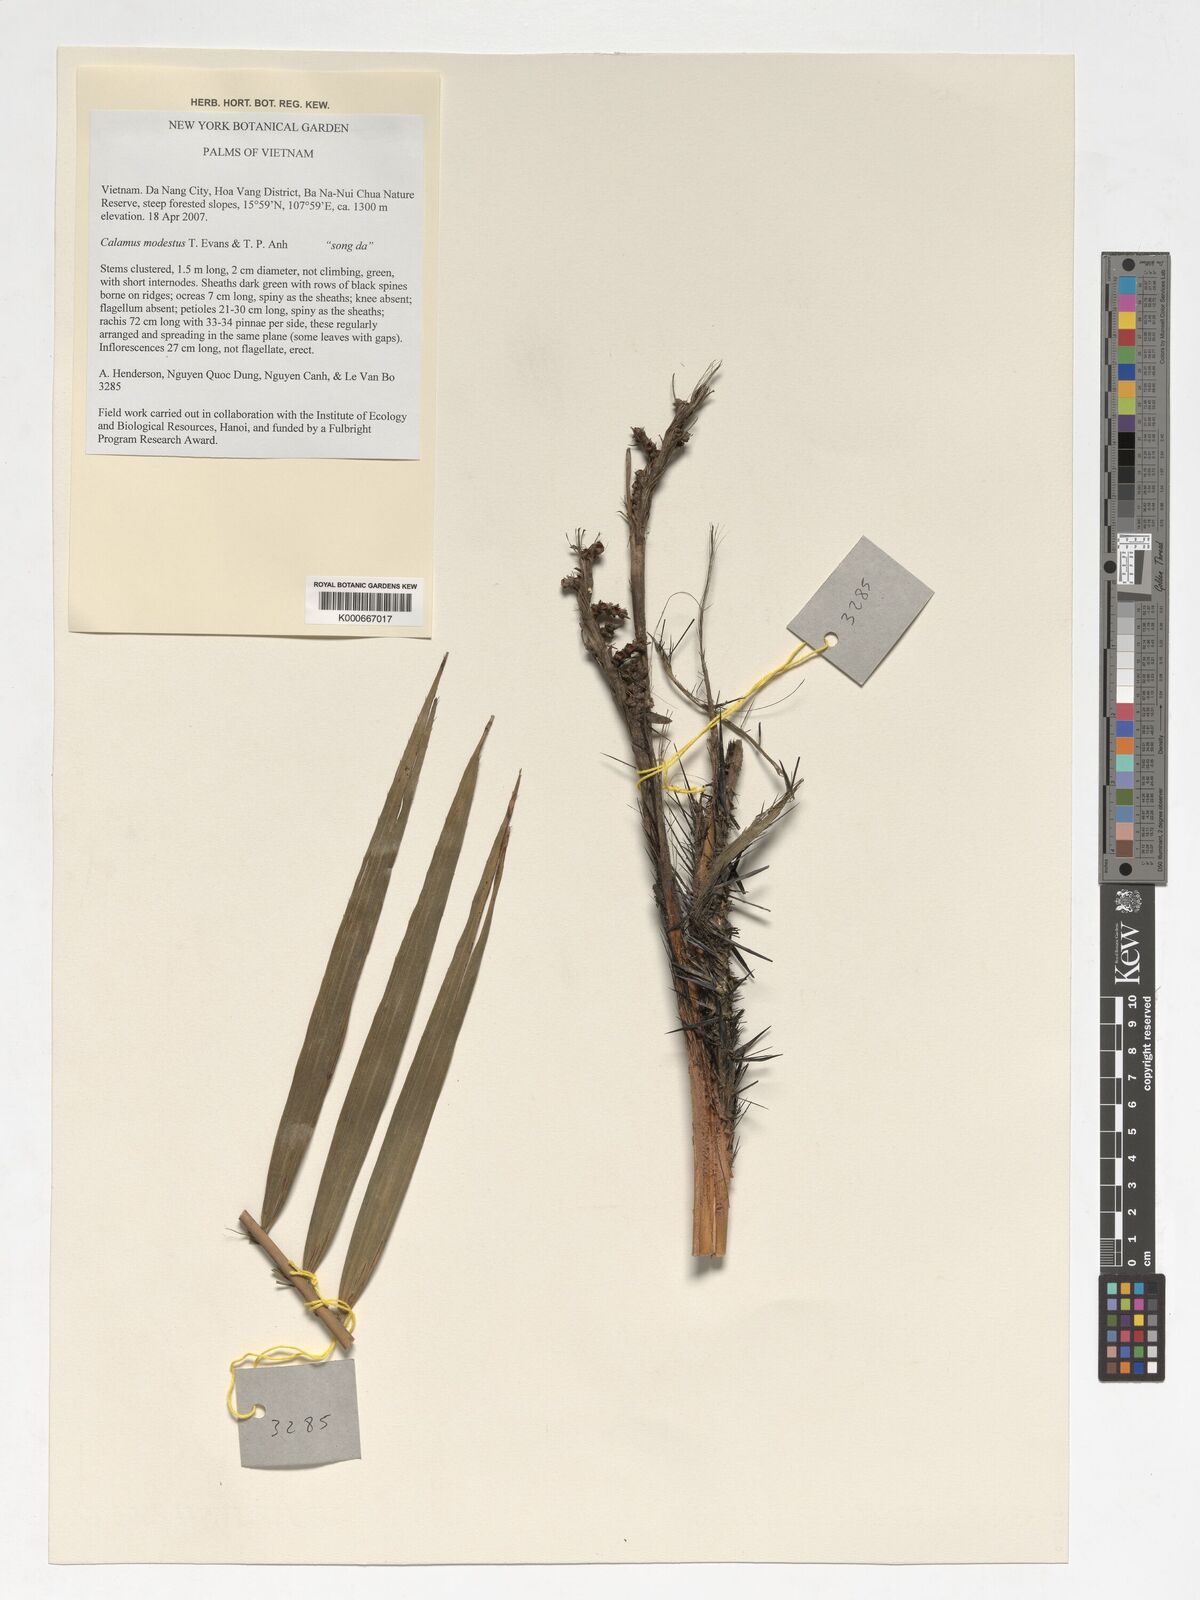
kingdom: Plantae
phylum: Tracheophyta
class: Liliopsida
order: Arecales
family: Arecaceae
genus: Calamus
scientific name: Calamus modestus
